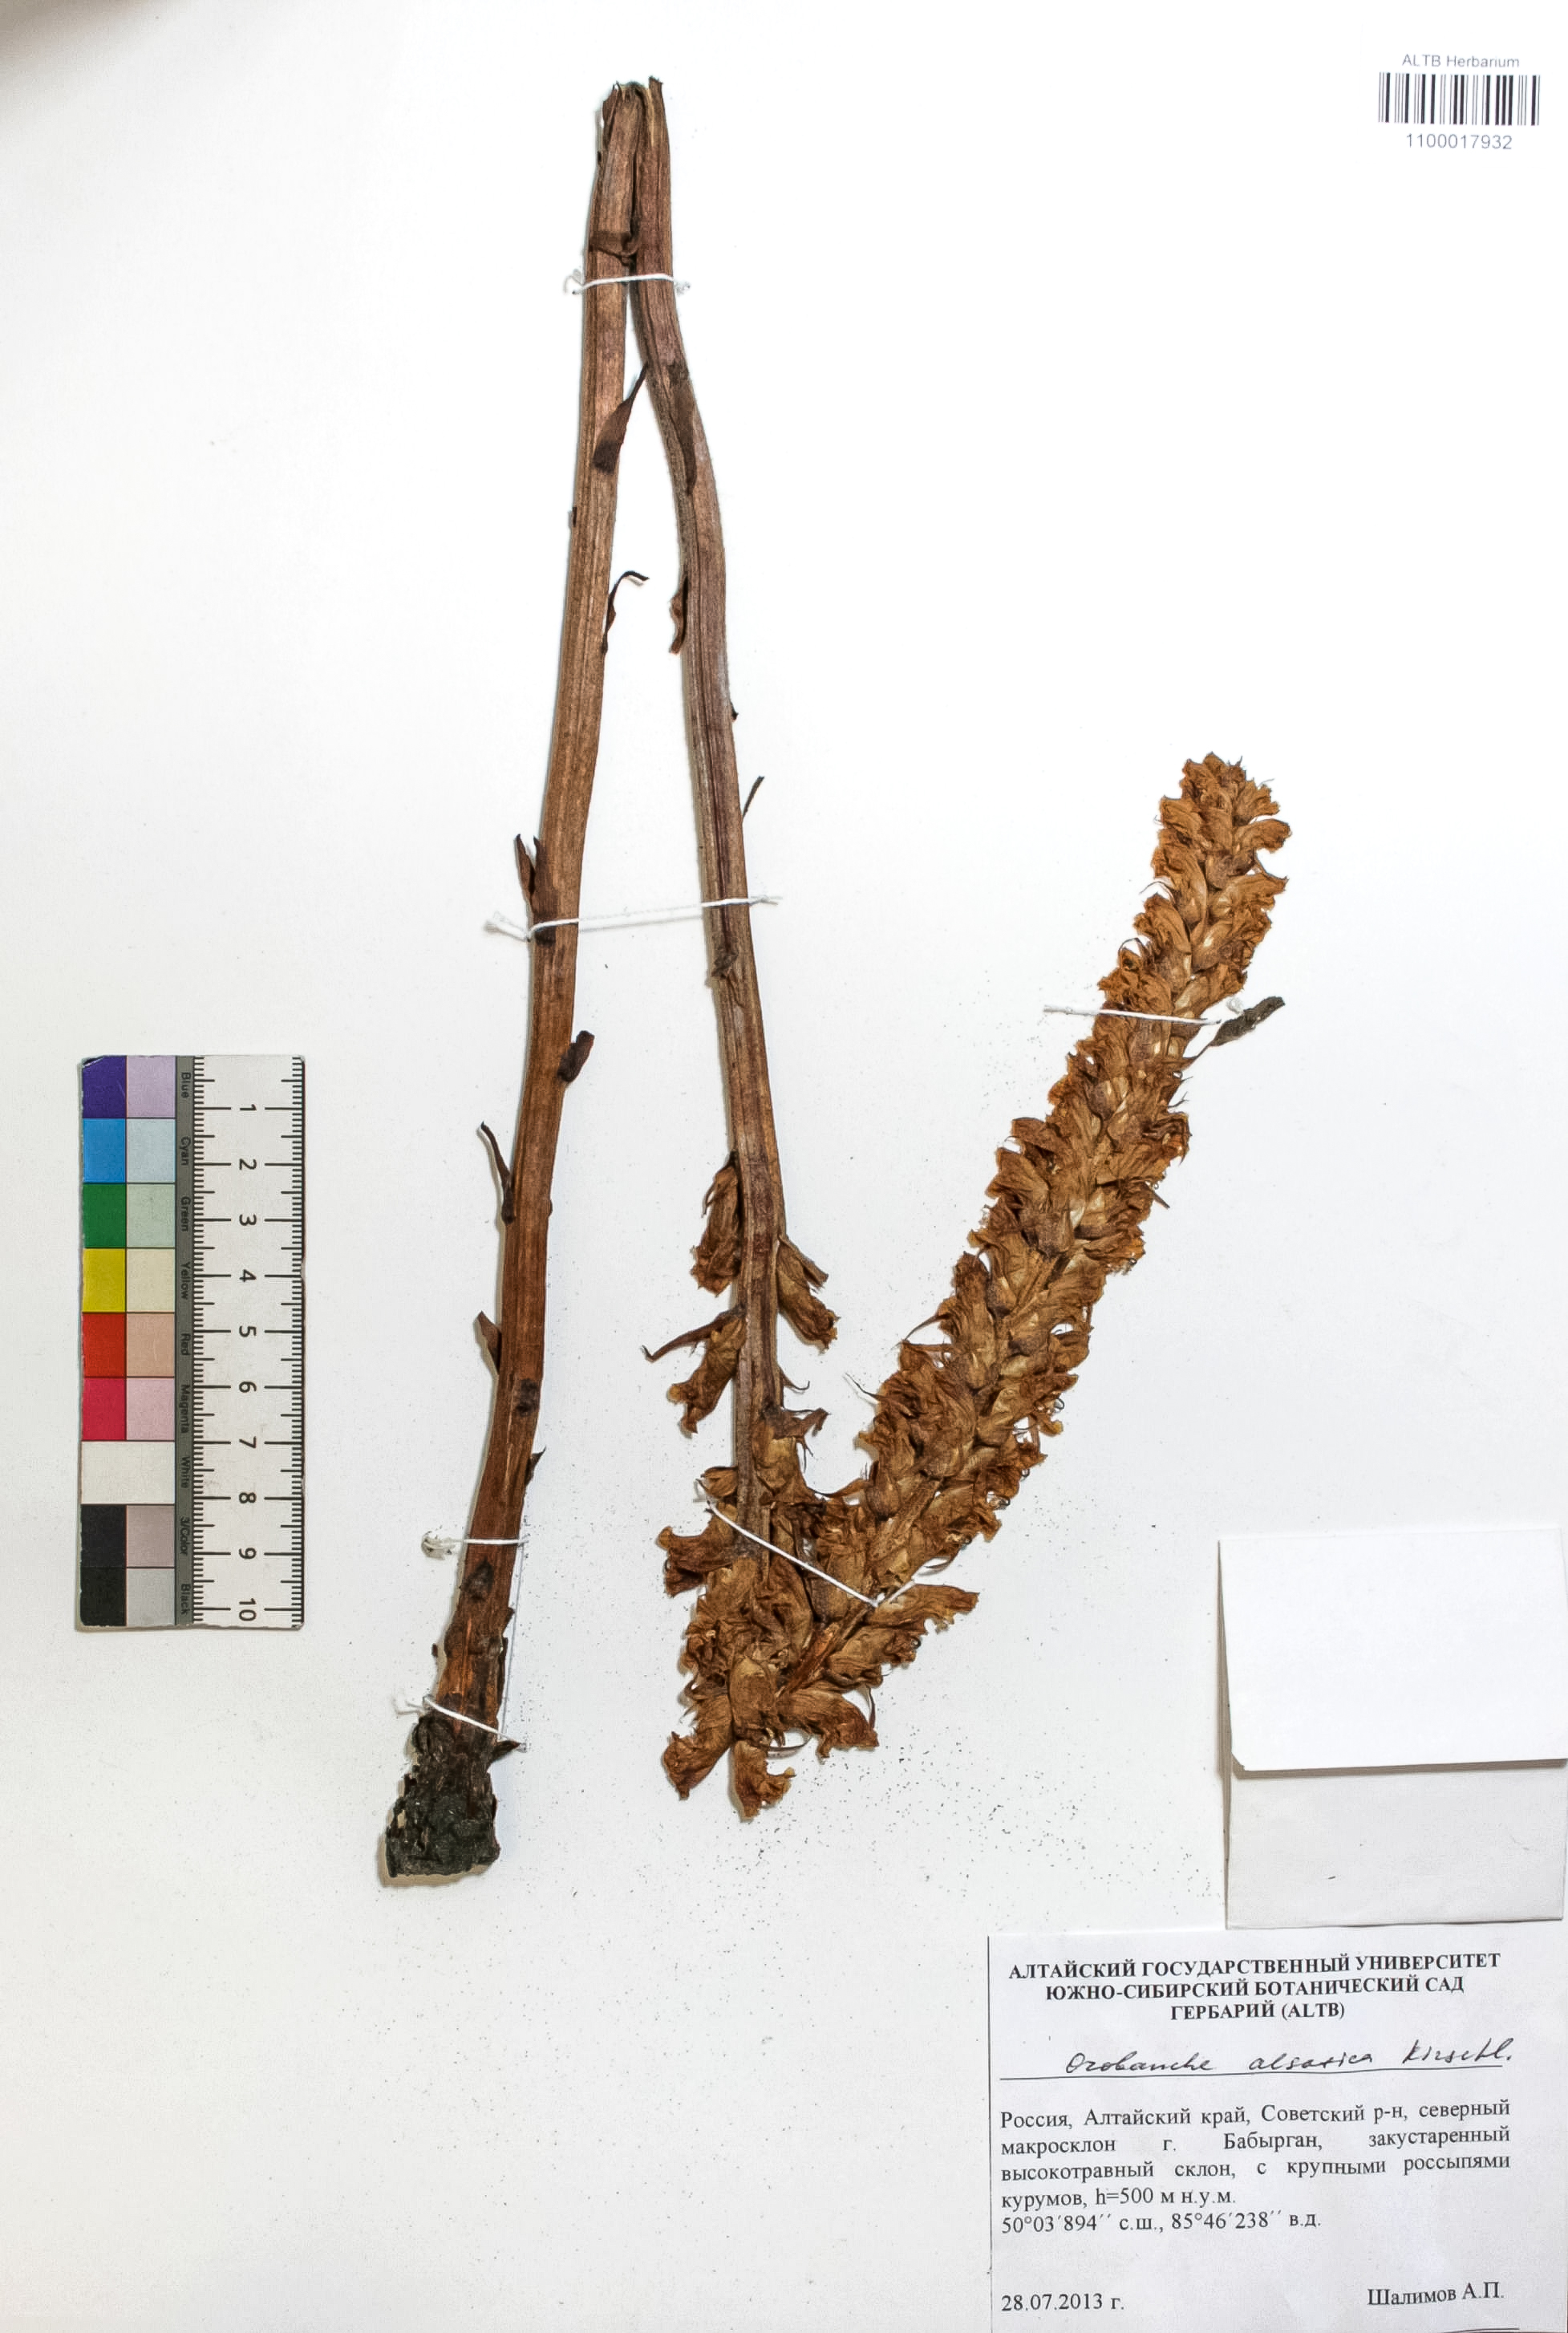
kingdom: Plantae
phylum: Tracheophyta
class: Magnoliopsida
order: Lamiales
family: Orobanchaceae
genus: Orobanche
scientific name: Orobanche alsatica
